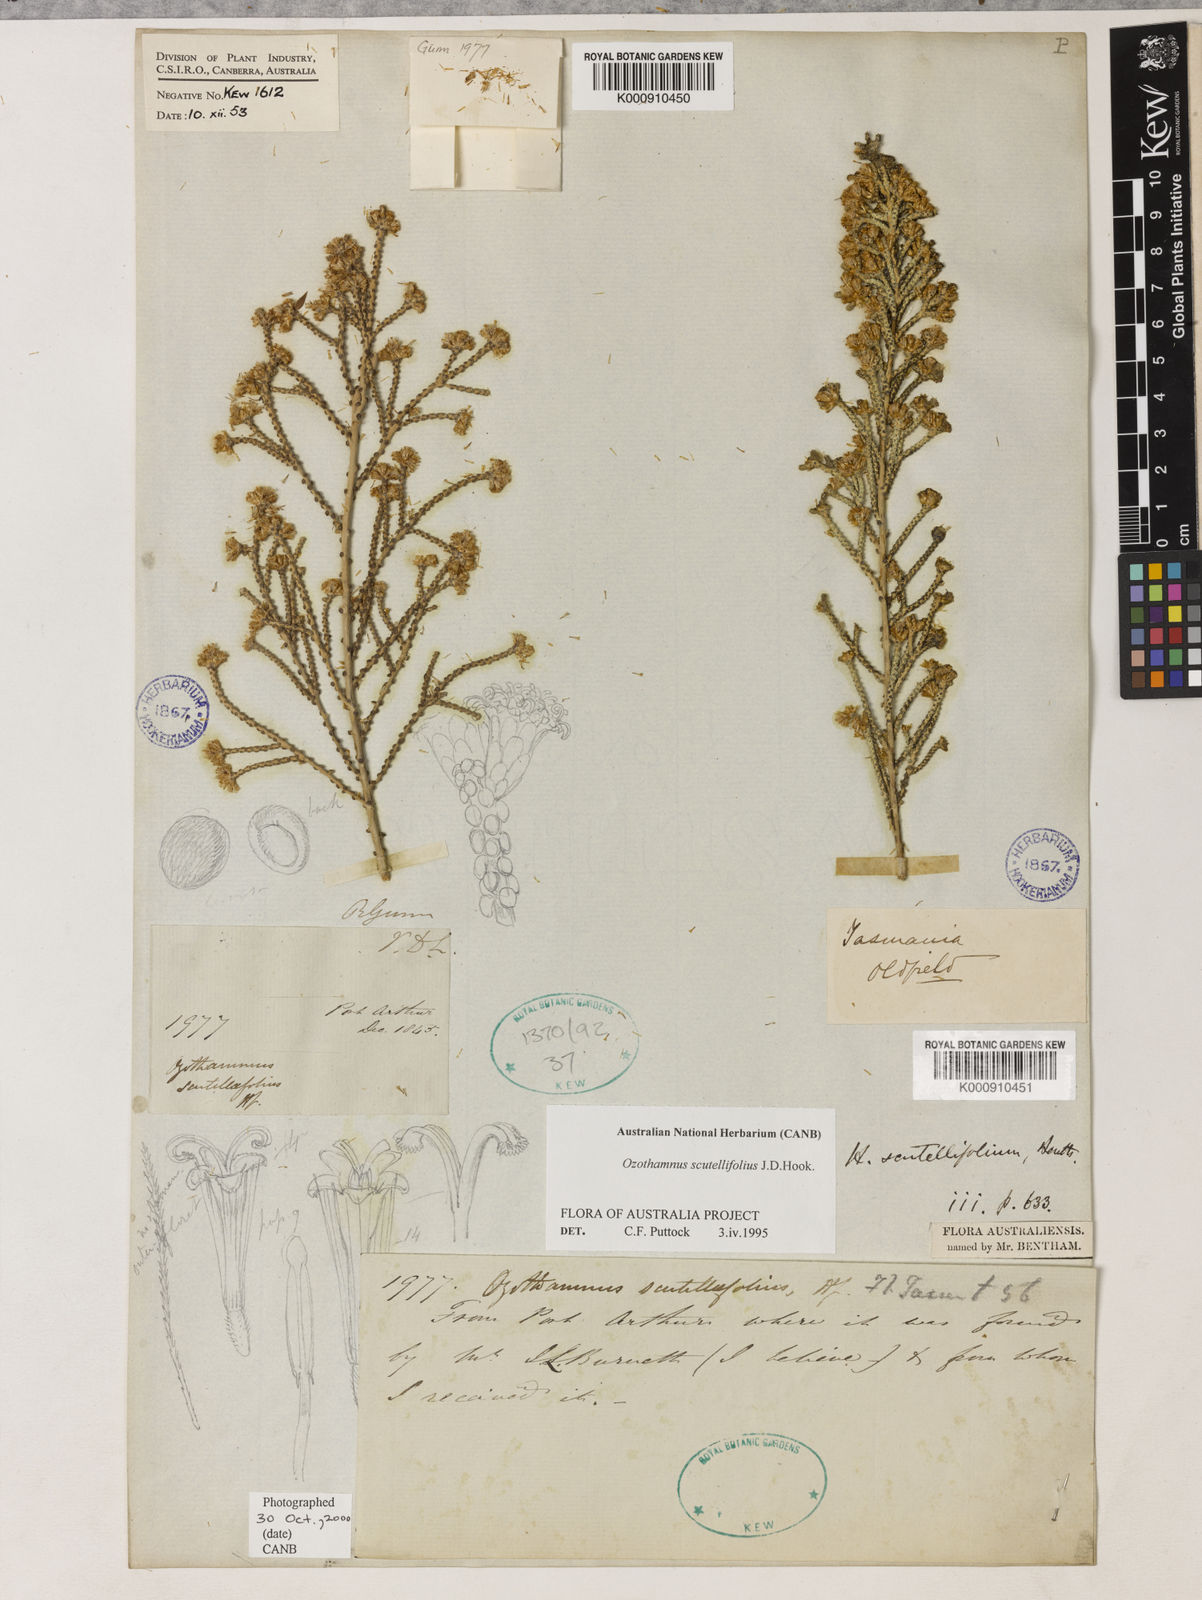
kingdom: Plantae
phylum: Tracheophyta
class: Magnoliopsida
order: Asterales
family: Asteraceae
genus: Ozothamnus
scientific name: Ozothamnus scutellifolius
